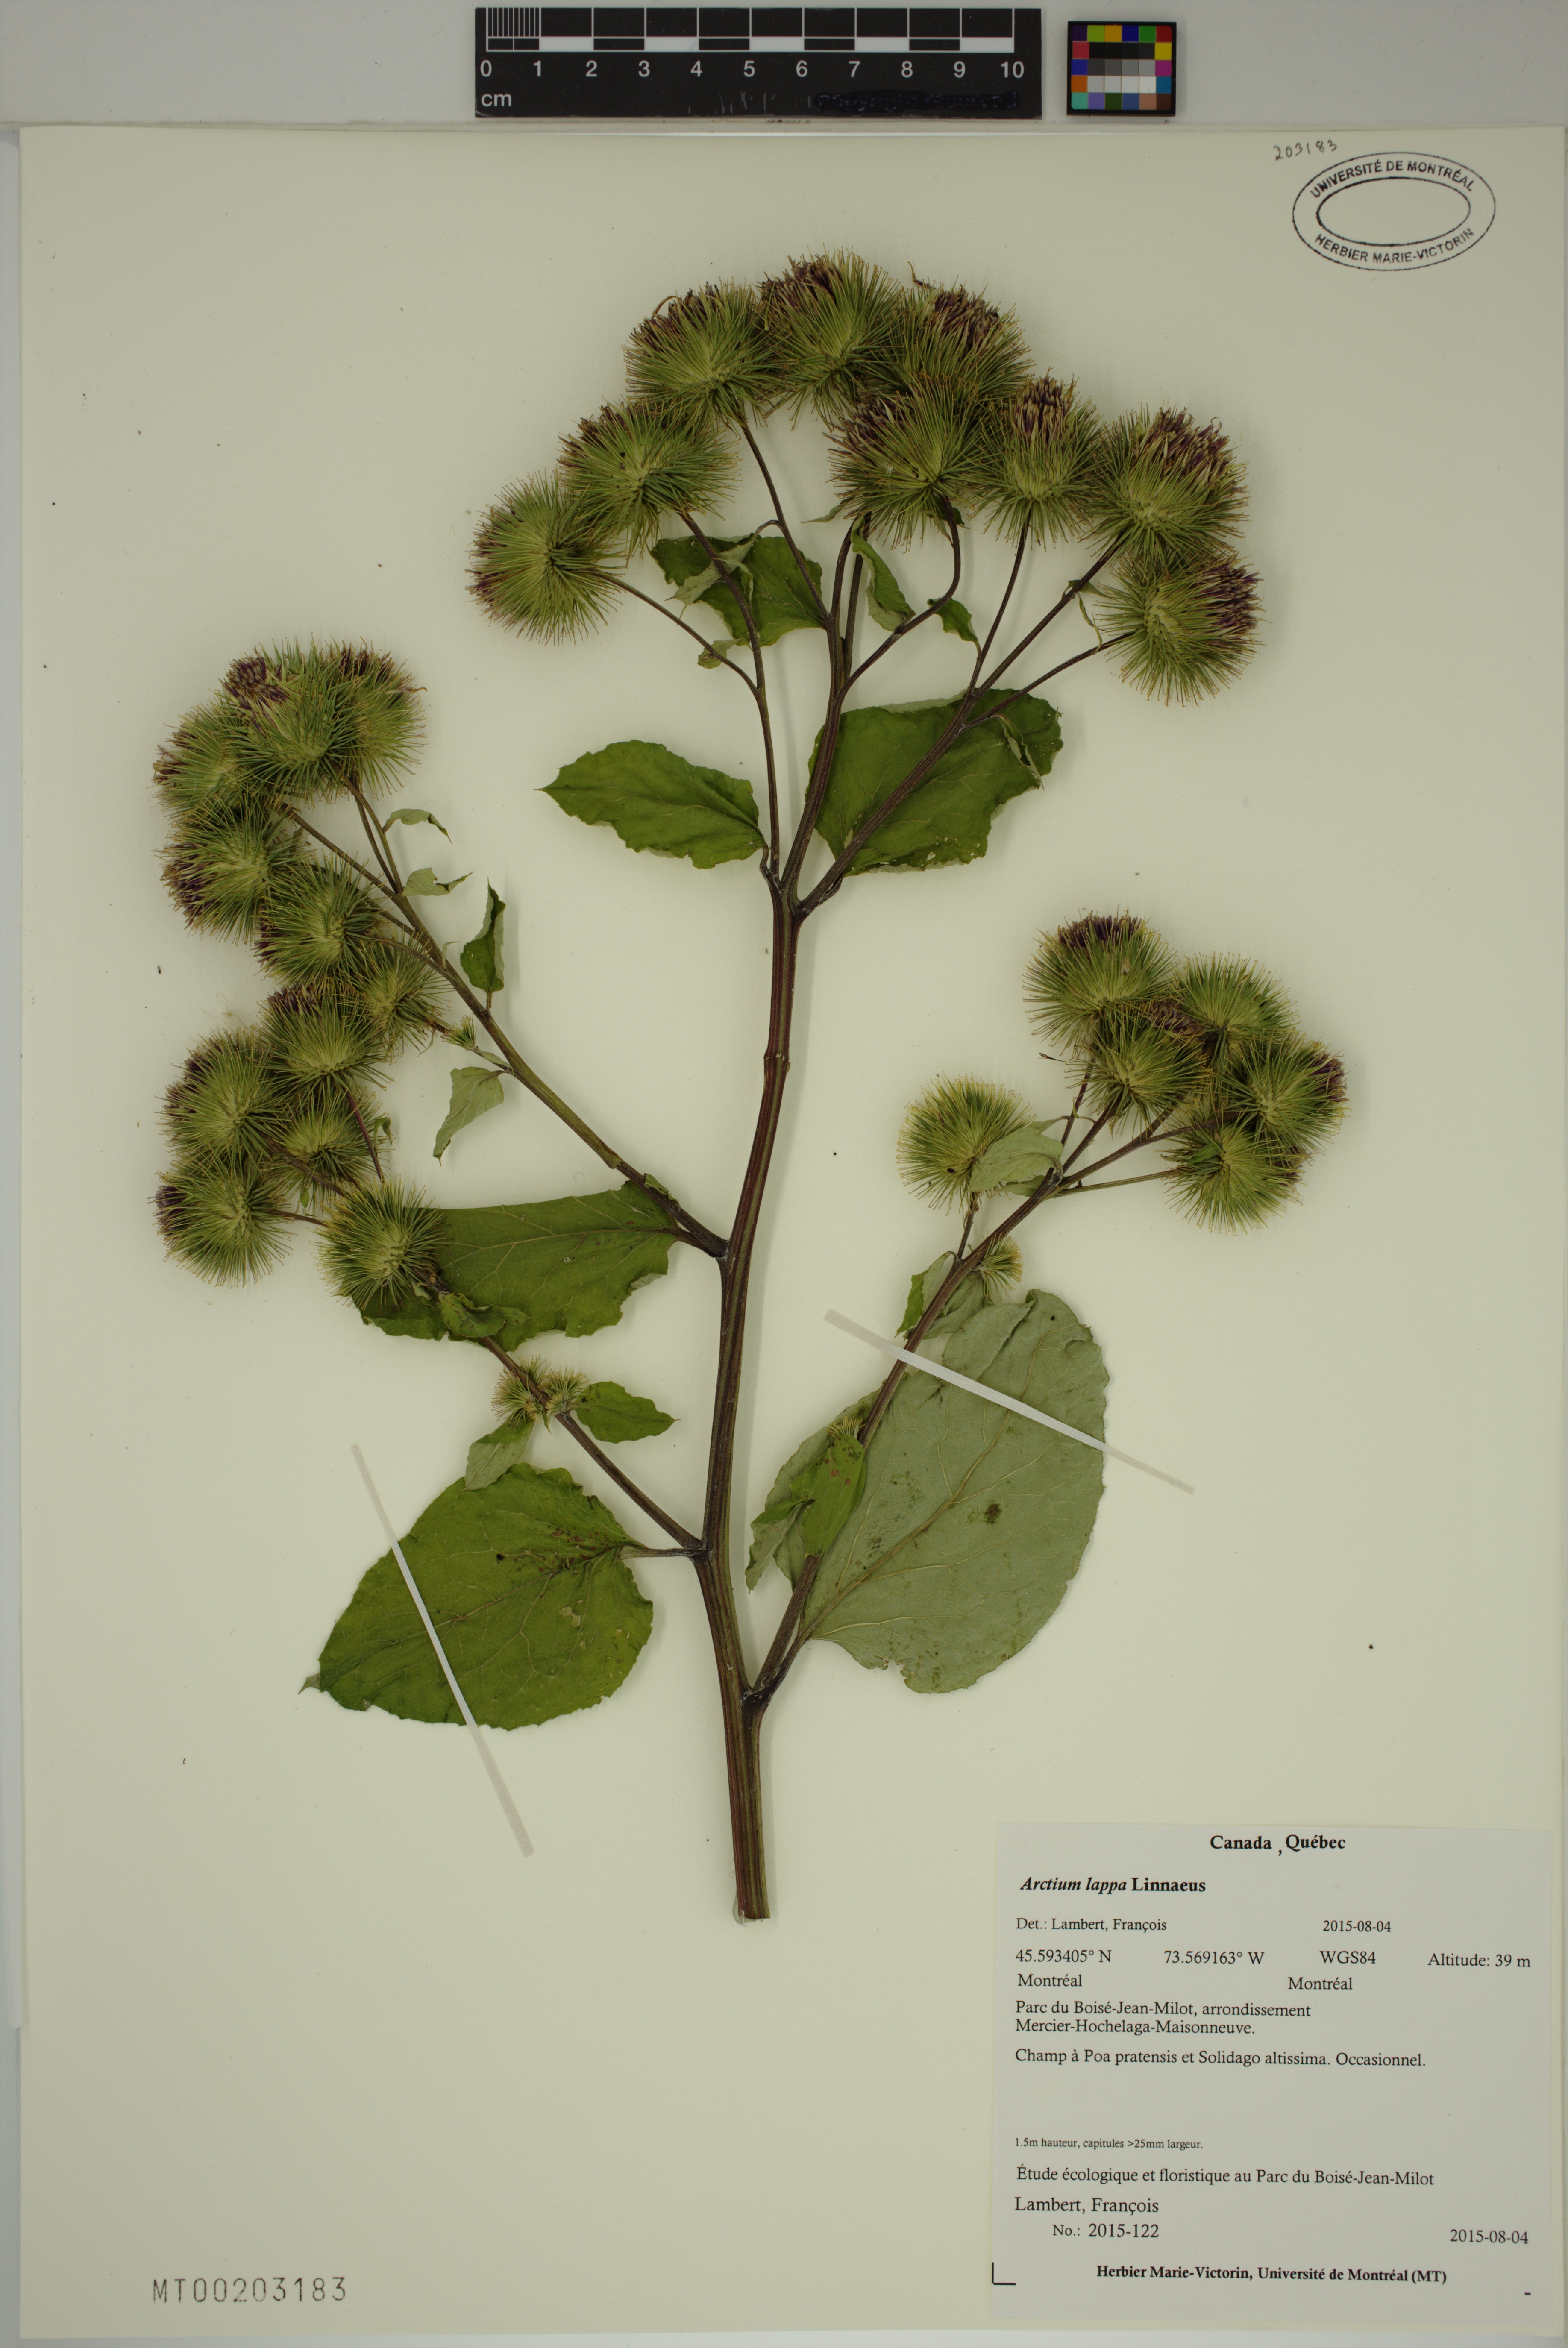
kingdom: Plantae
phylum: Tracheophyta
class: Magnoliopsida
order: Asterales
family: Asteraceae
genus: Arctium
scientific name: Arctium lappa
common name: Greater burdock
